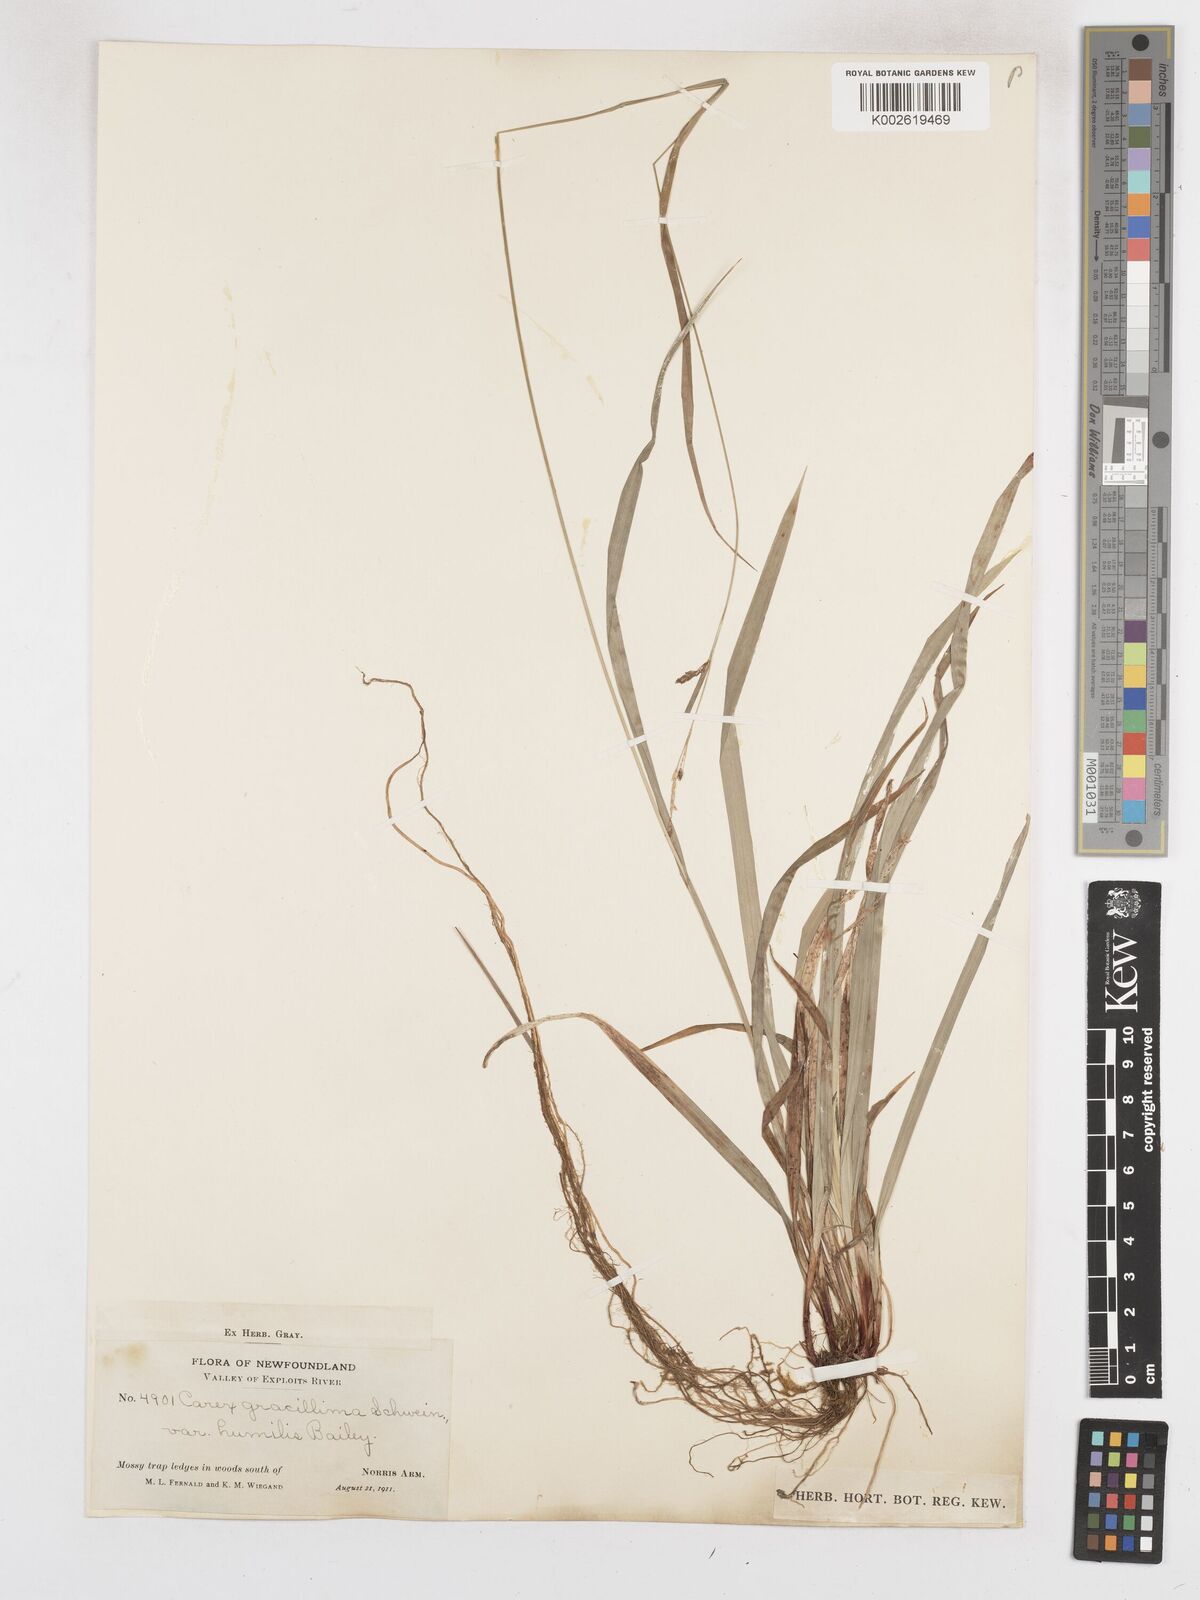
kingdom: Plantae
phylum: Tracheophyta
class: Liliopsida
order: Poales
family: Cyperaceae
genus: Carex
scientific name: Carex gracillima
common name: Graceful sedge
